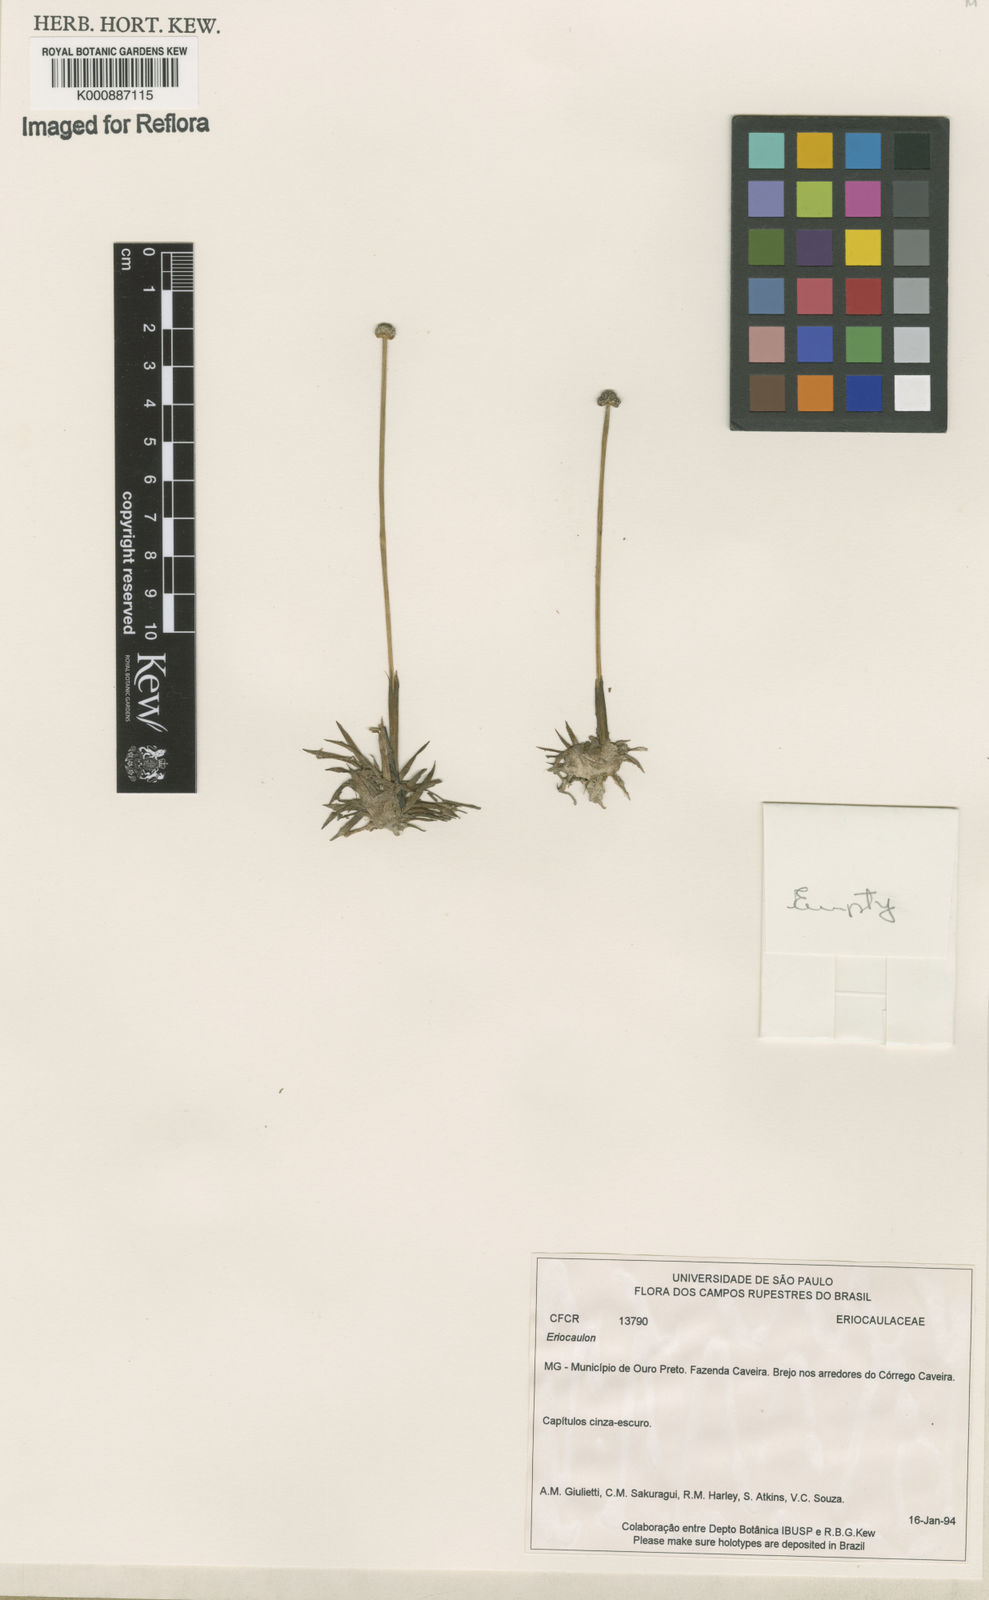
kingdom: Plantae
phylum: Tracheophyta
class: Liliopsida
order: Poales
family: Eriocaulaceae
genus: Eriocaulon
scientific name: Eriocaulon
